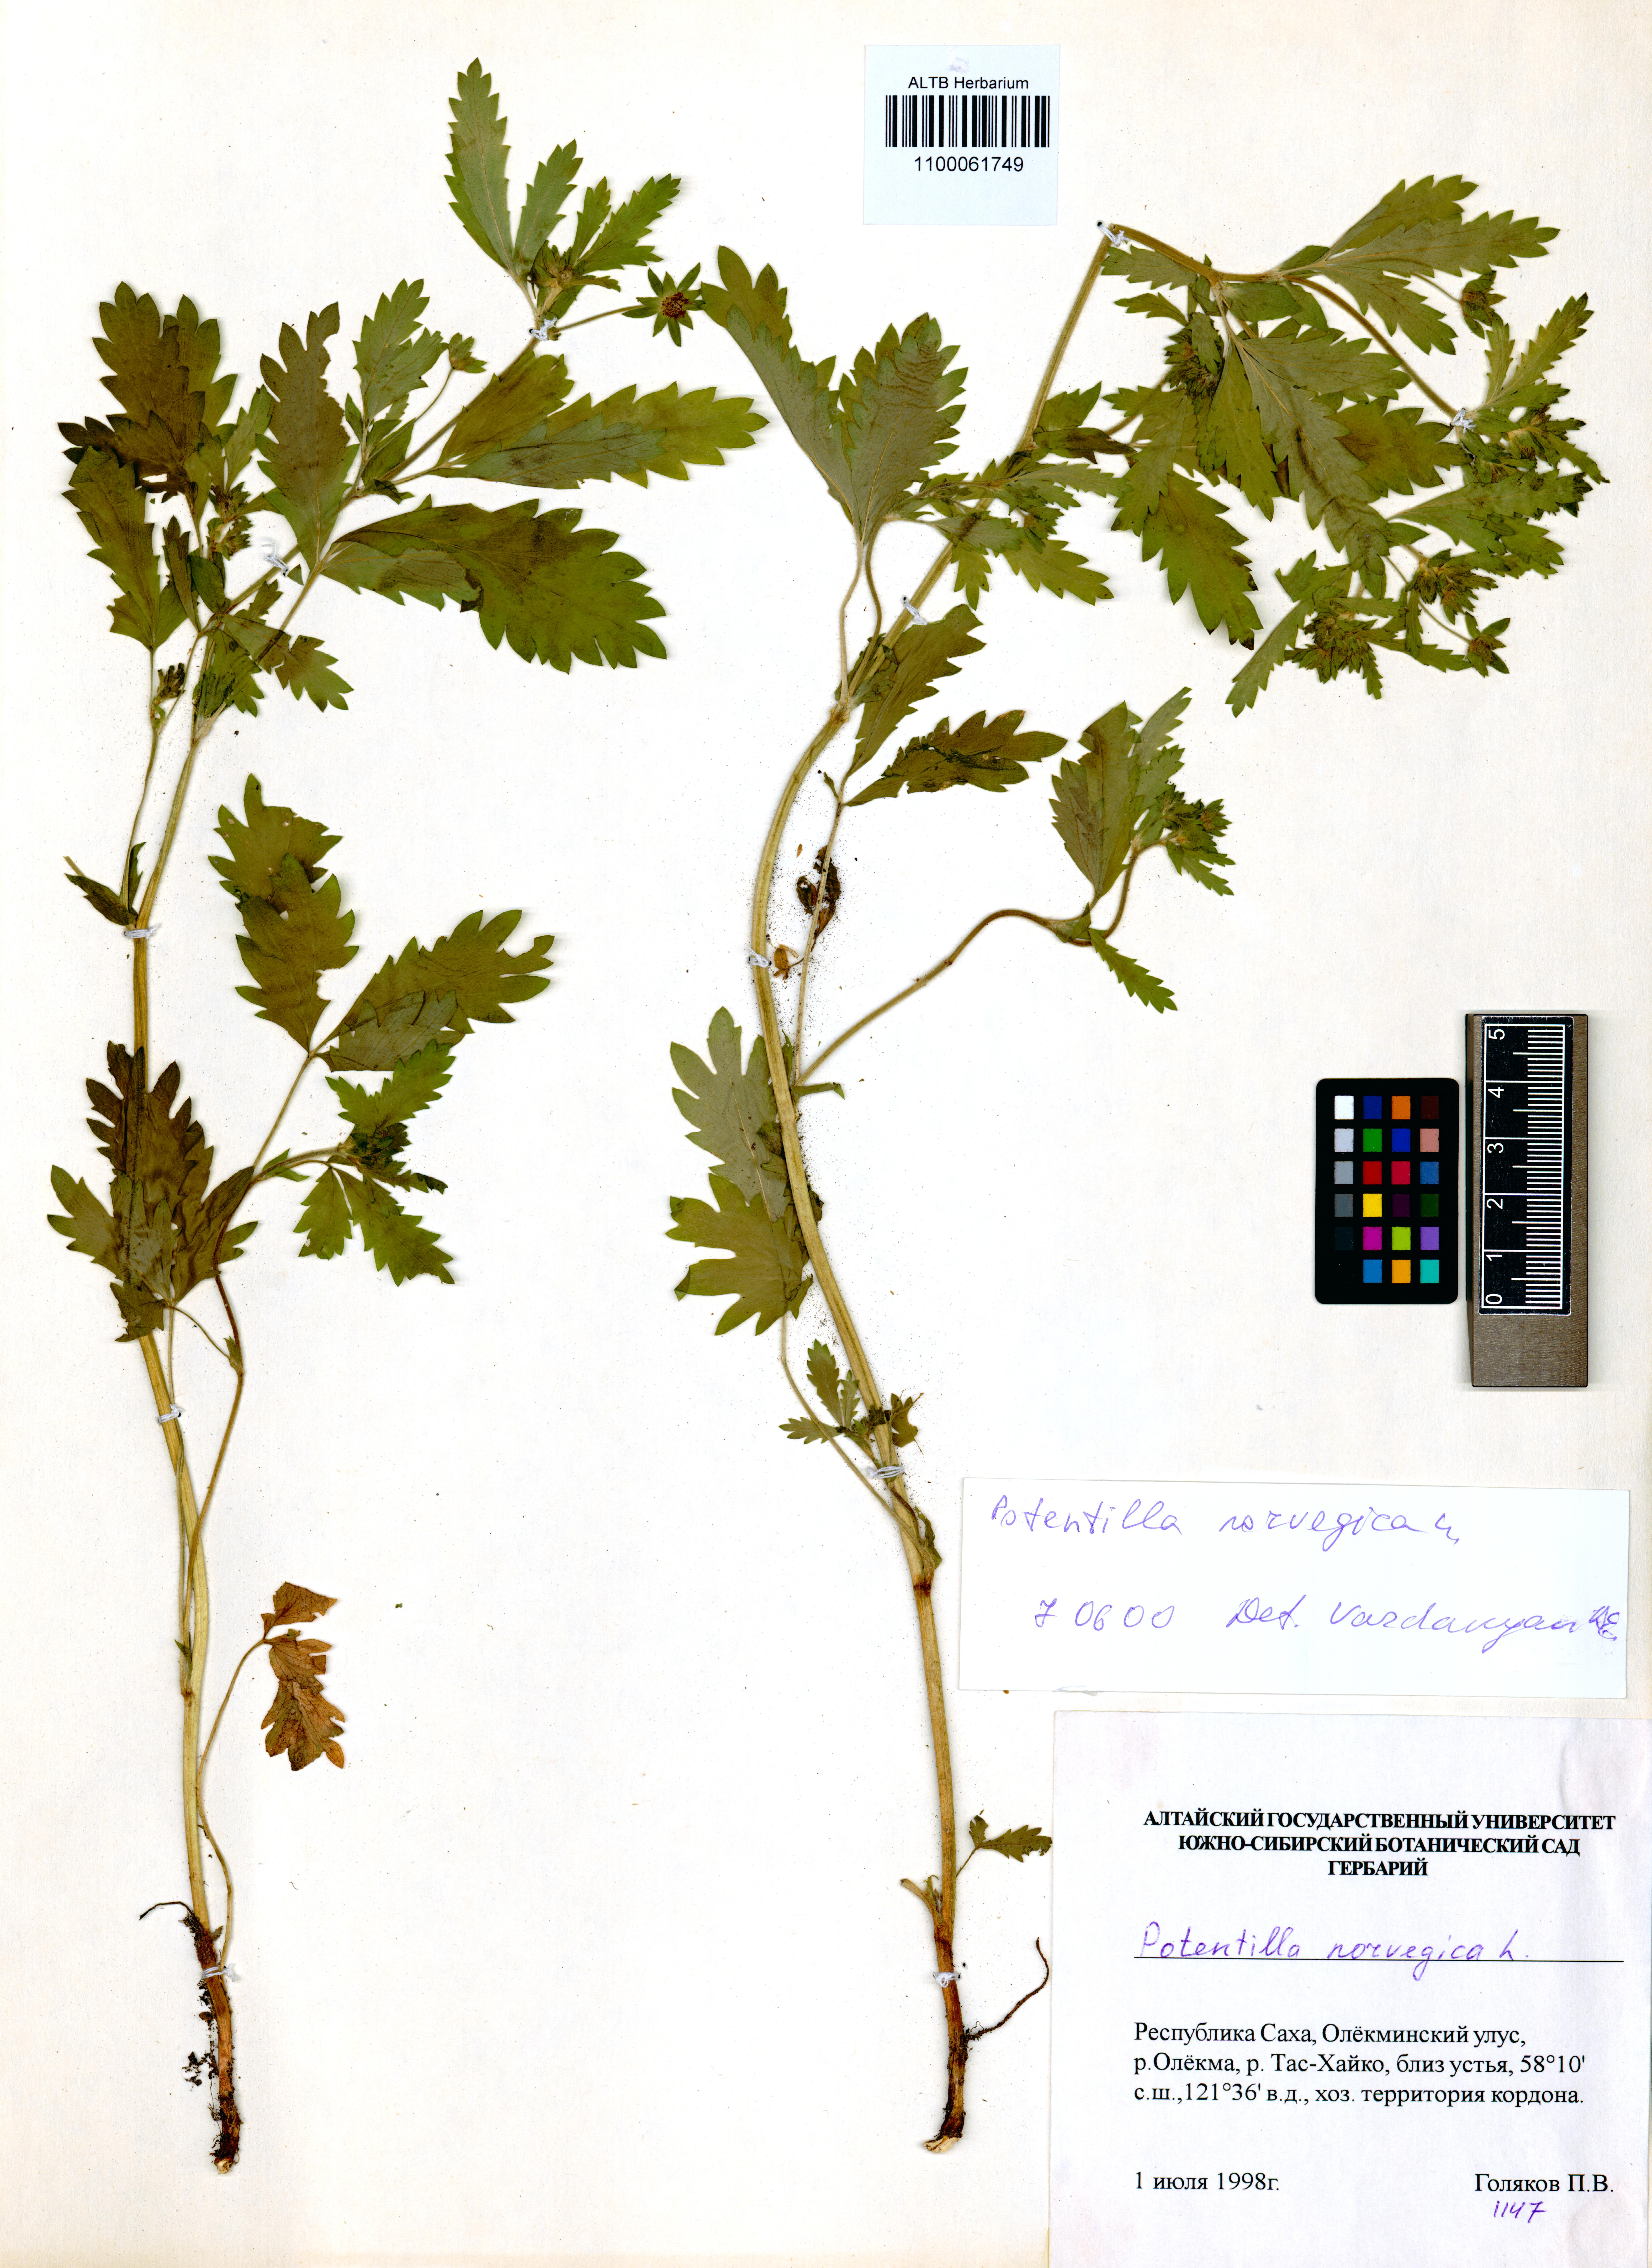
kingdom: Plantae
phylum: Tracheophyta
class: Magnoliopsida
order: Rosales
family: Rosaceae
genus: Potentilla
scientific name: Potentilla norvegica
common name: Ternate-leaved cinquefoil
